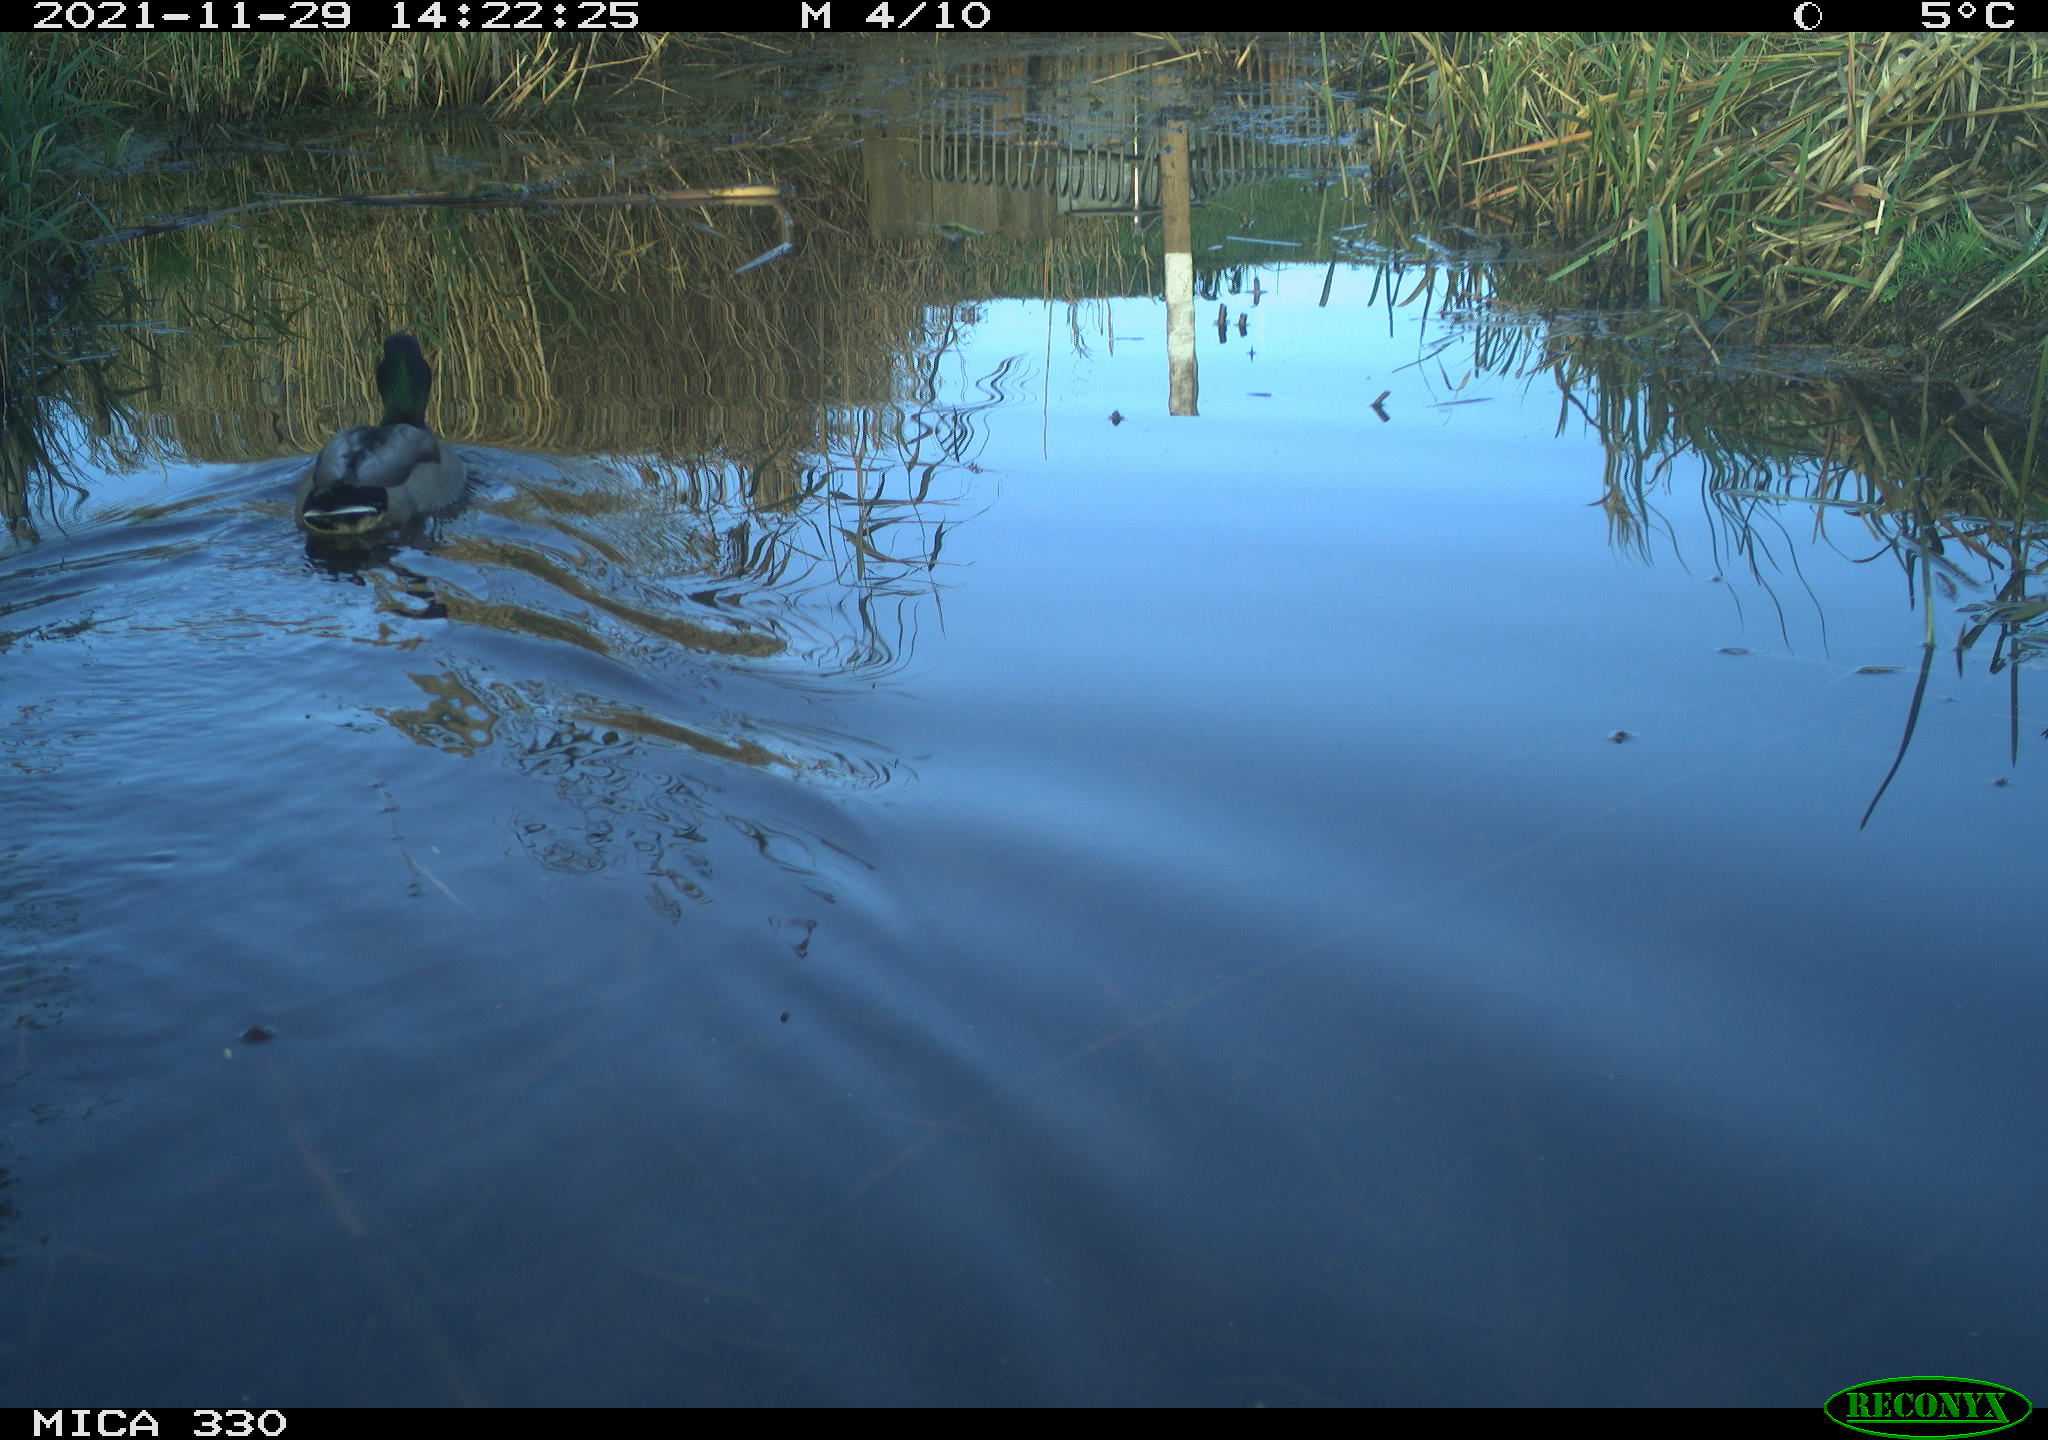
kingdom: Animalia
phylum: Chordata
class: Aves
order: Anseriformes
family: Anatidae
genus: Anas
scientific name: Anas platyrhynchos
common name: Mallard
